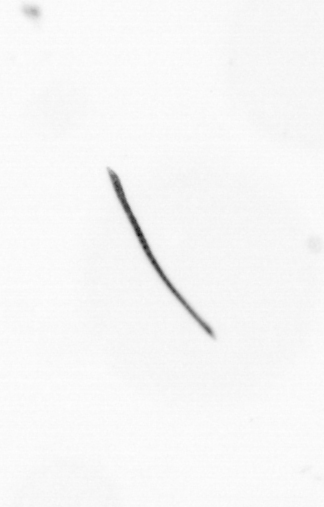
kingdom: Bacteria
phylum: Cyanobacteria
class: Cyanobacteriia
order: Cyanobacteriales
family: Microcoleaceae
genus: Trichodesmium
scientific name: Trichodesmium
